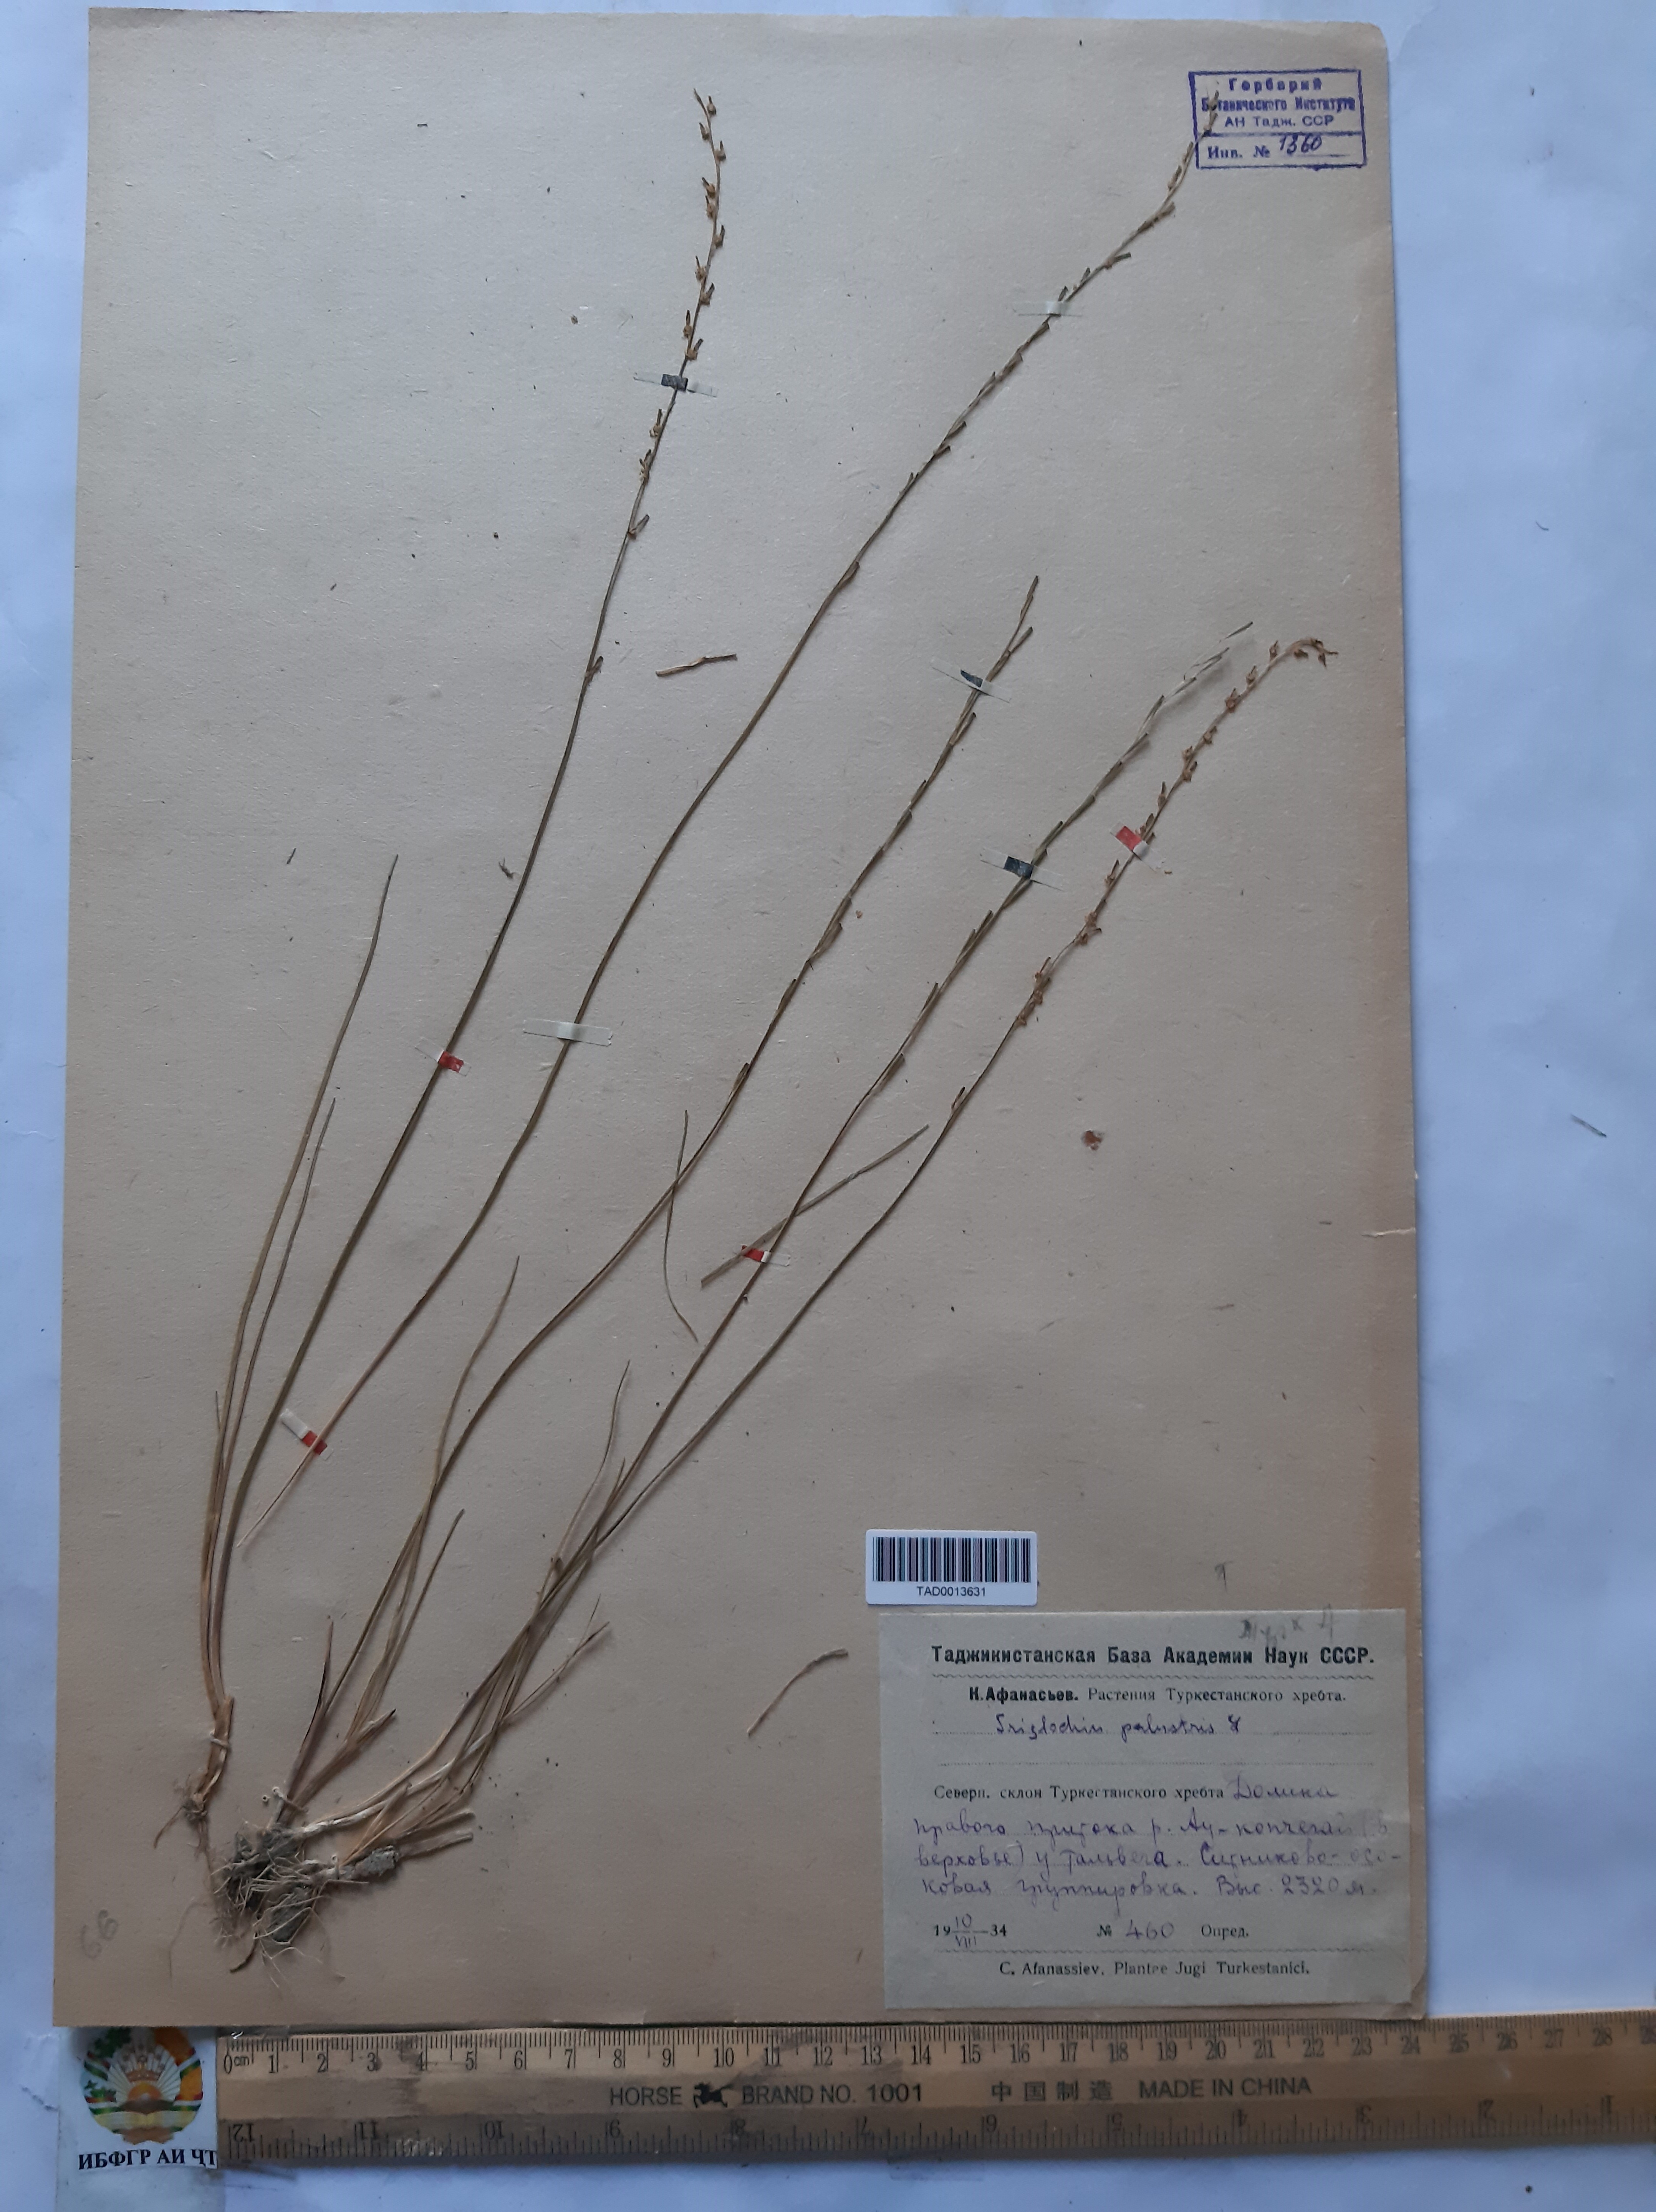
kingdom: Plantae
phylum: Tracheophyta
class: Liliopsida
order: Alismatales
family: Juncaginaceae
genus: Triglochin
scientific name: Triglochin palustris
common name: Marsh arrowgrass
